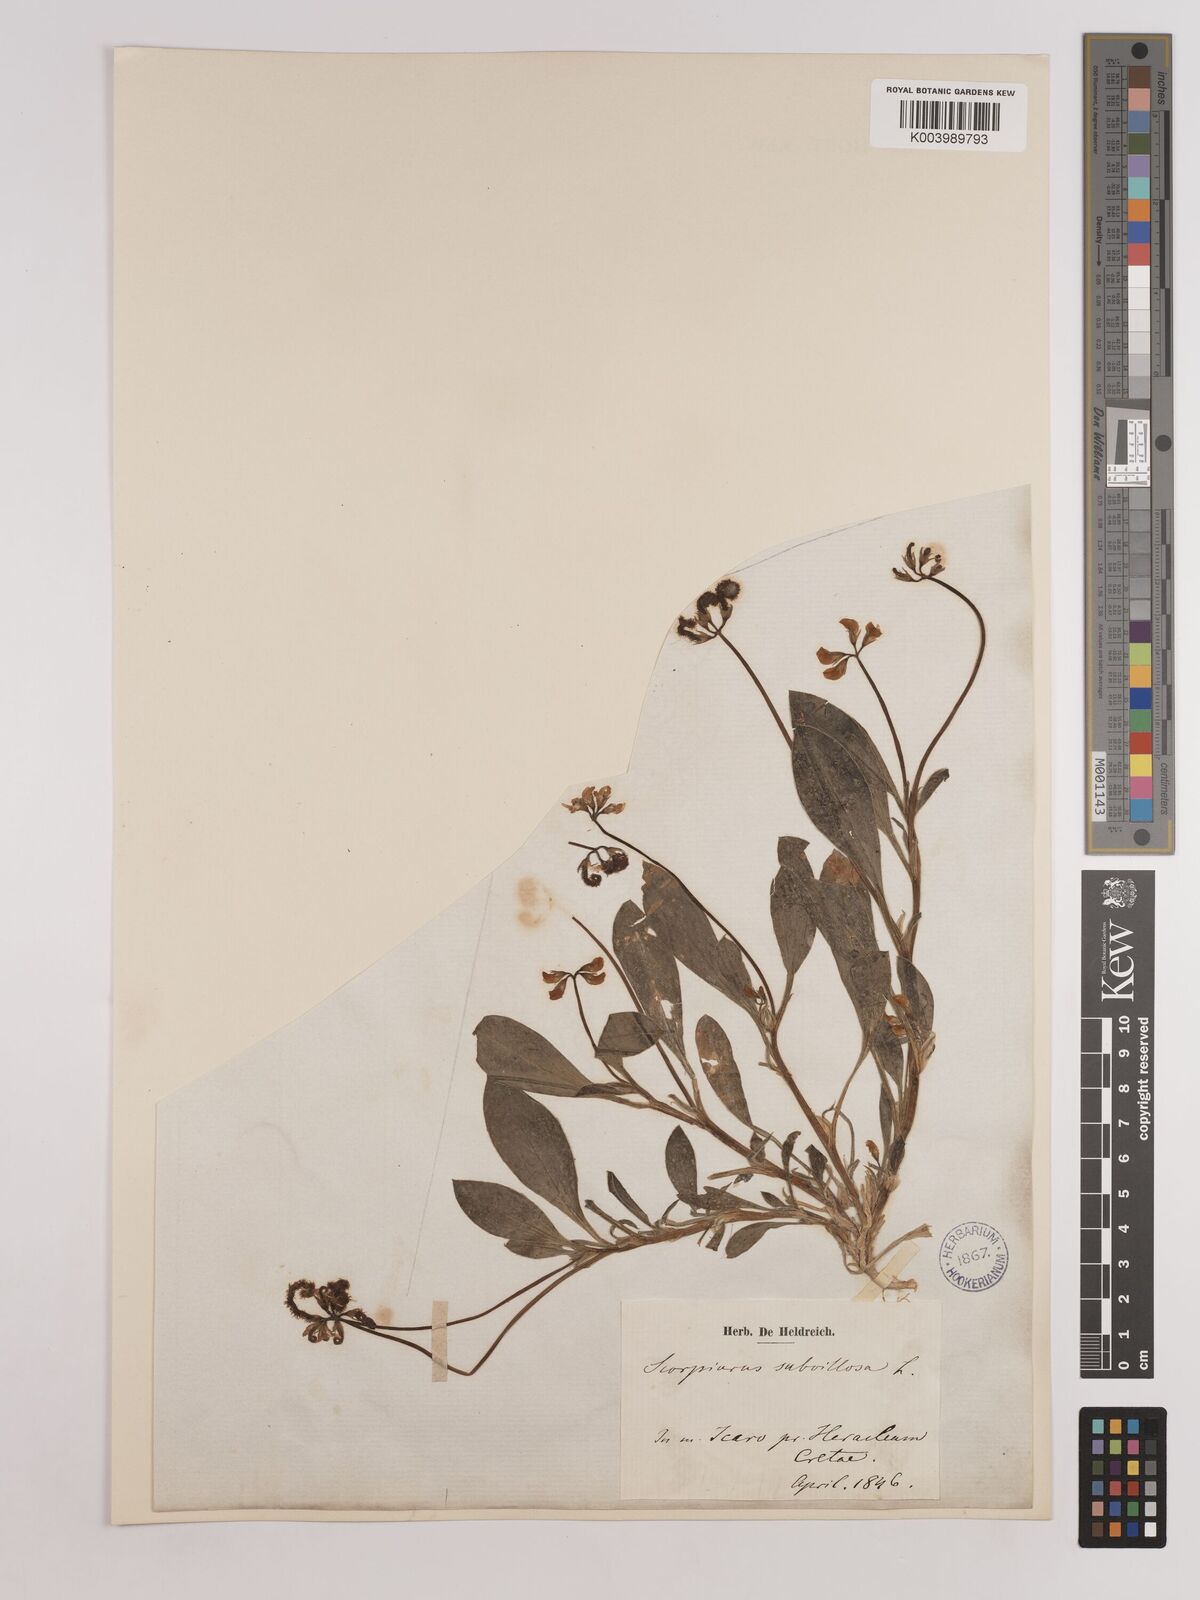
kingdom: Plantae
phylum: Tracheophyta
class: Magnoliopsida
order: Fabales
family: Fabaceae
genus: Scorpiurus
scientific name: Scorpiurus muricatus
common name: Caterpillar-plant
